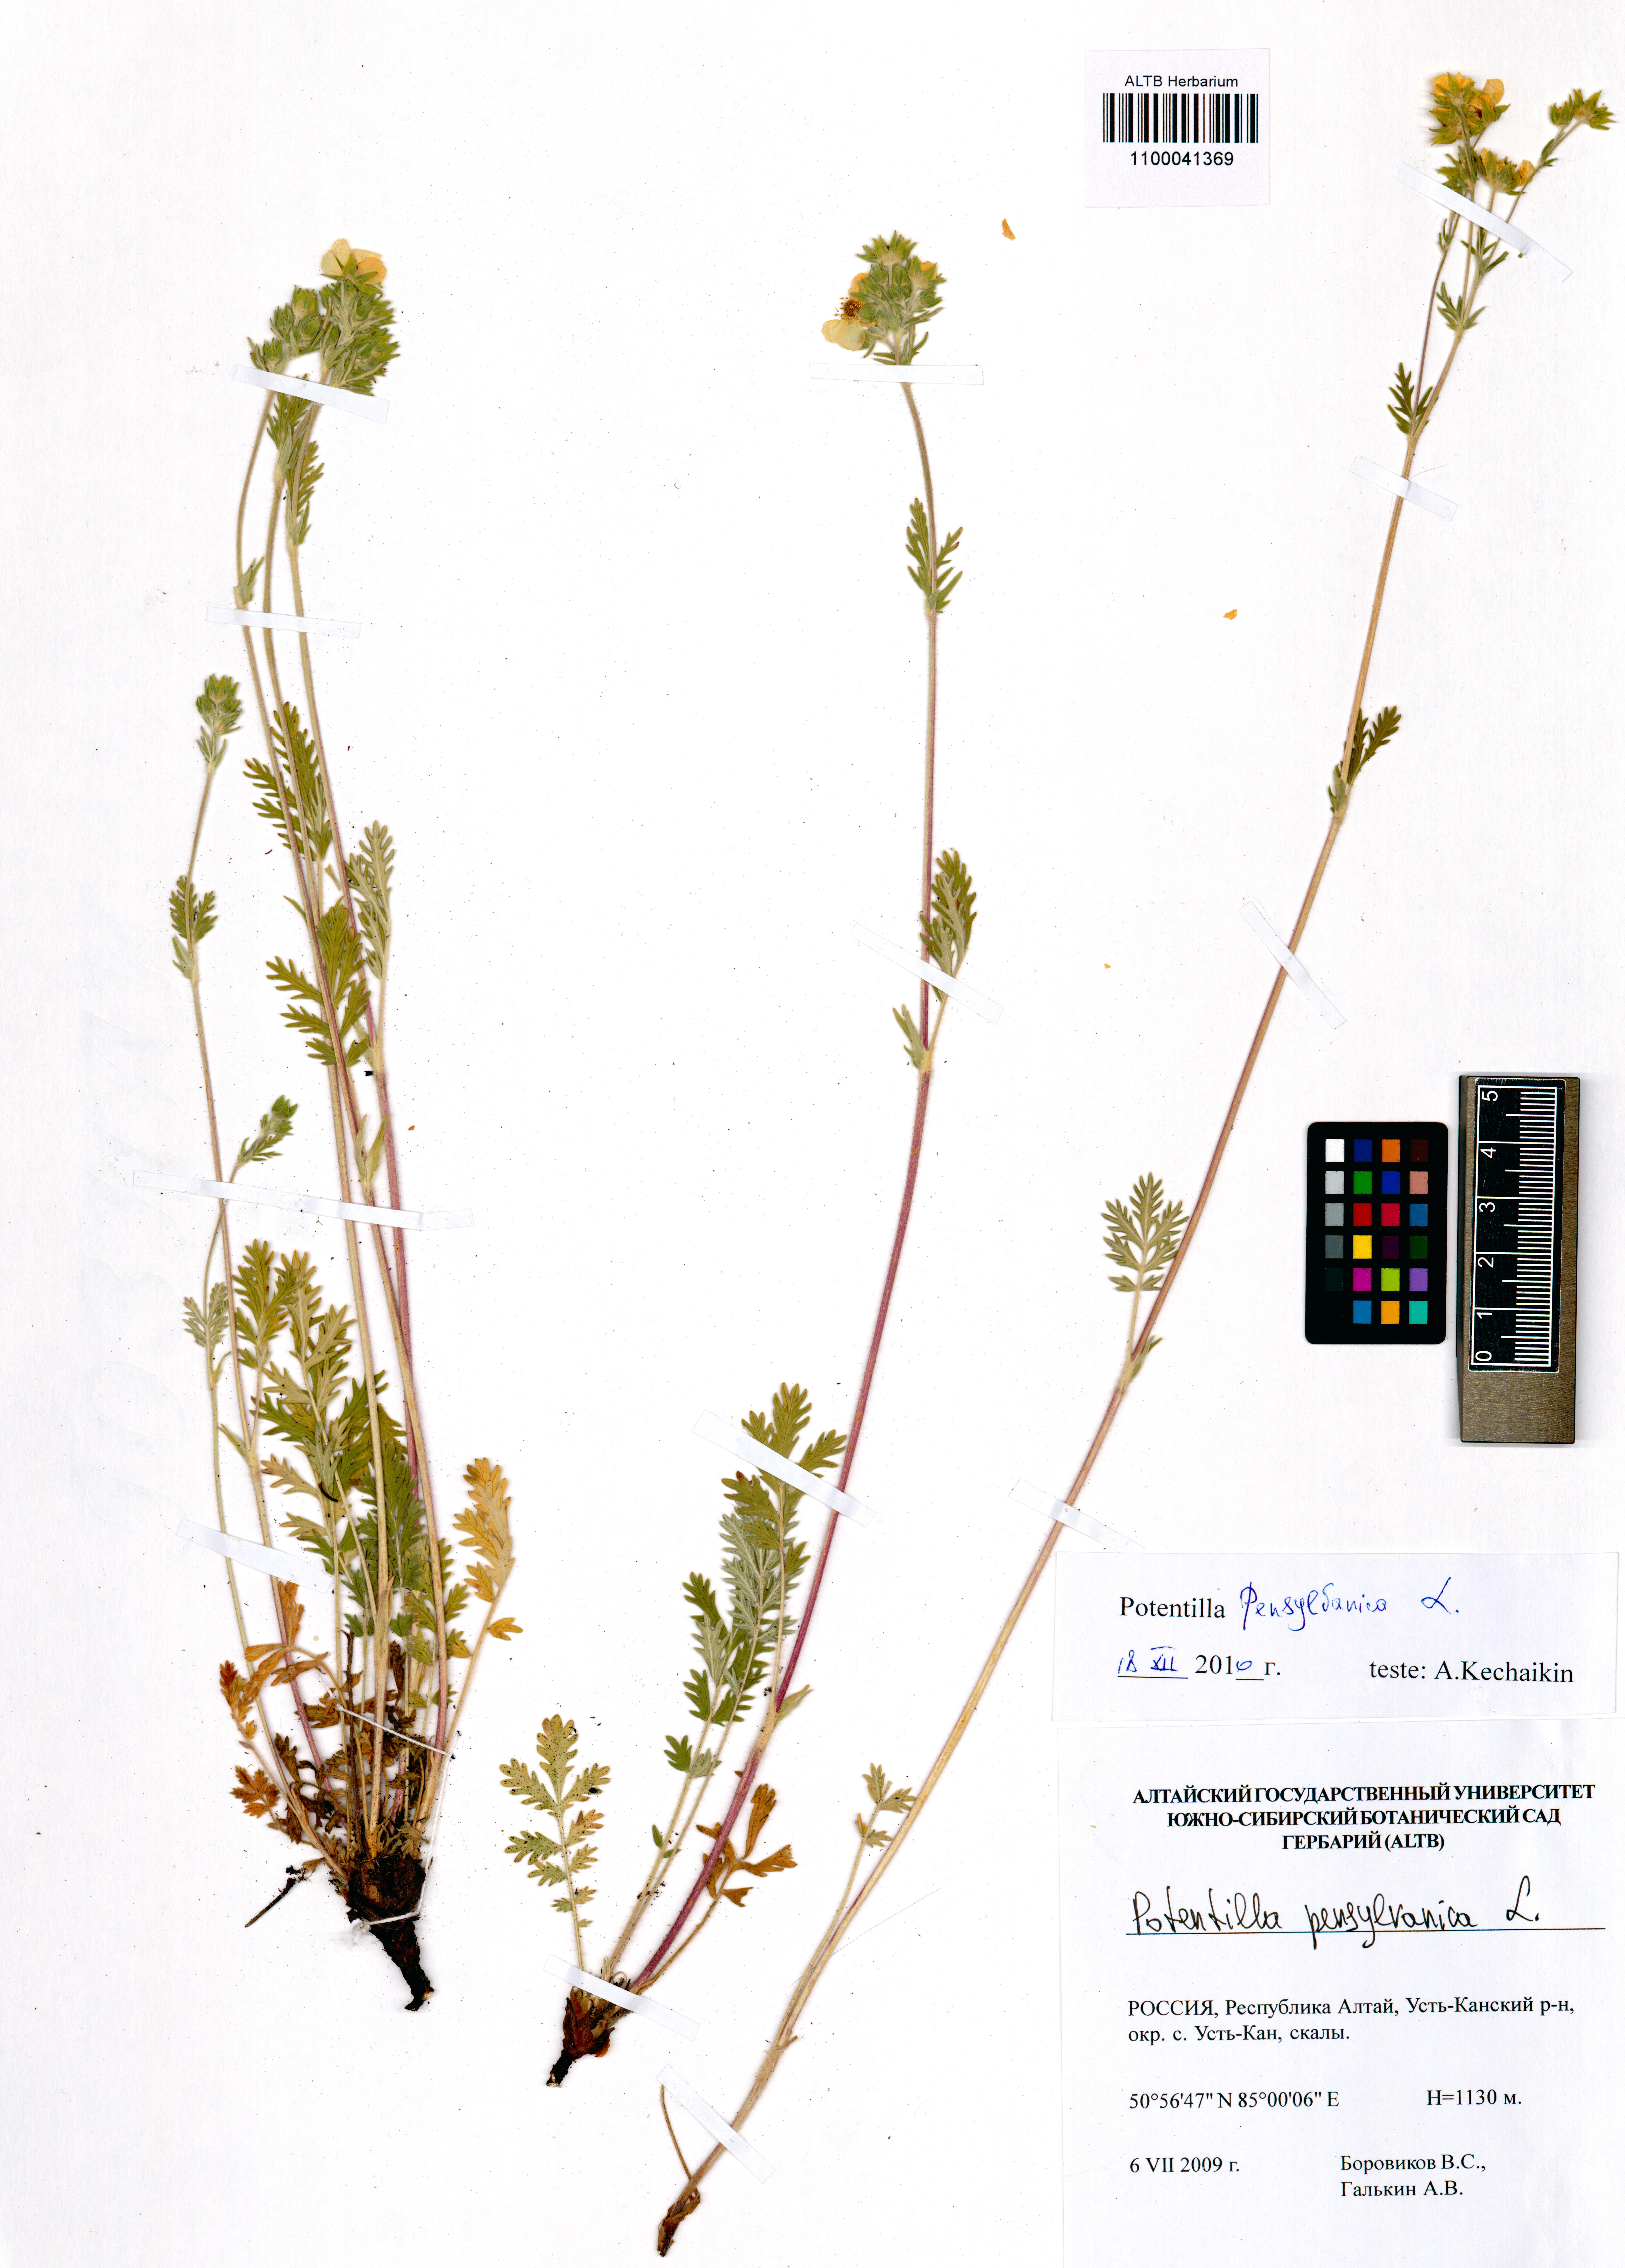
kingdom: Plantae
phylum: Tracheophyta
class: Magnoliopsida
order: Rosales
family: Rosaceae
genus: Potentilla
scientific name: Potentilla pensylvanica
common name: Pennsylvania cinquefoil
